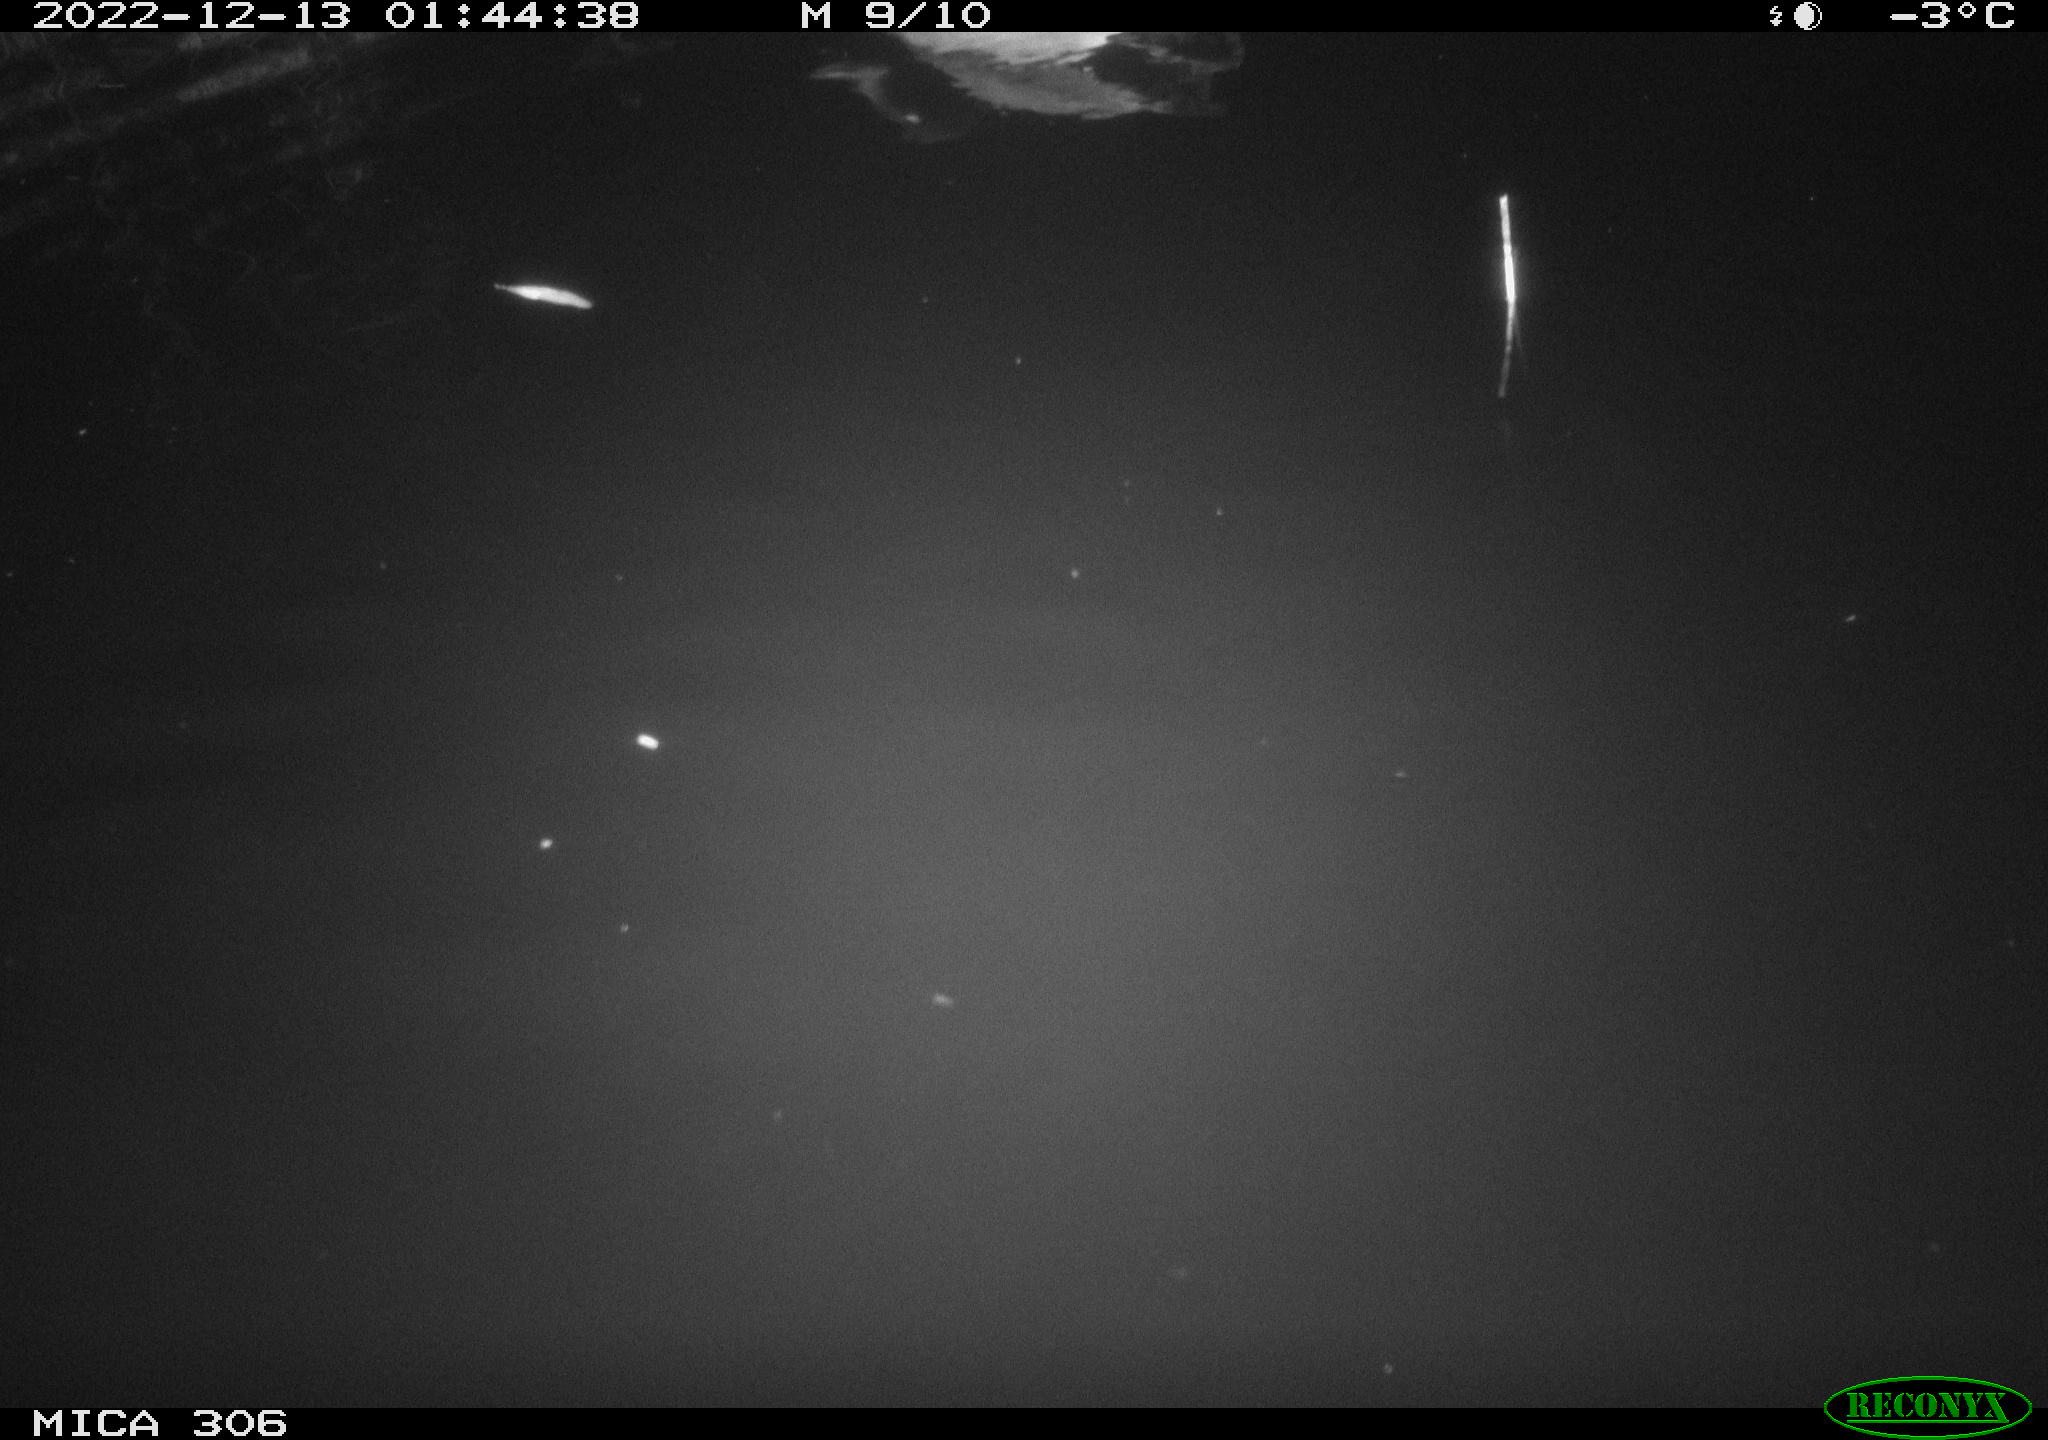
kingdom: Animalia
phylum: Chordata
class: Aves
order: Anseriformes
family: Anatidae
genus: Anas
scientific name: Anas
